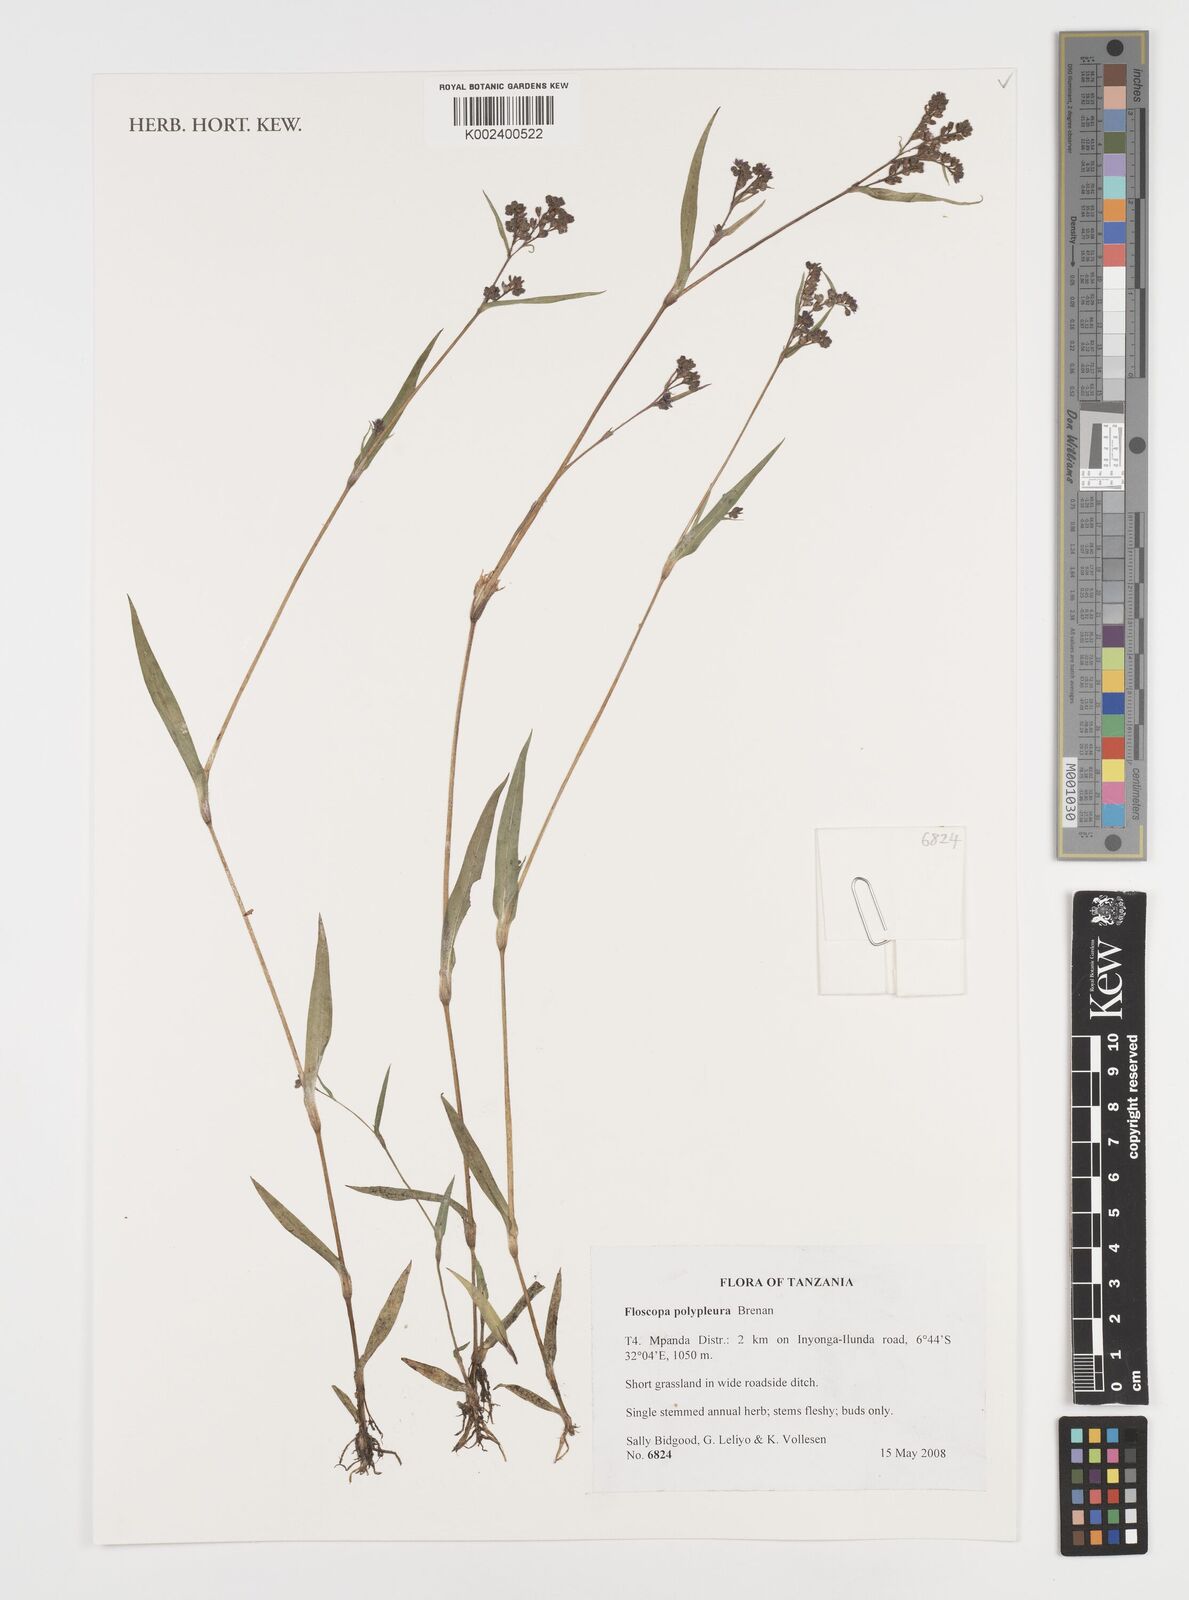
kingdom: Plantae
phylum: Tracheophyta
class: Liliopsida
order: Commelinales
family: Commelinaceae
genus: Floscopa
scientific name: Floscopa polypleura
